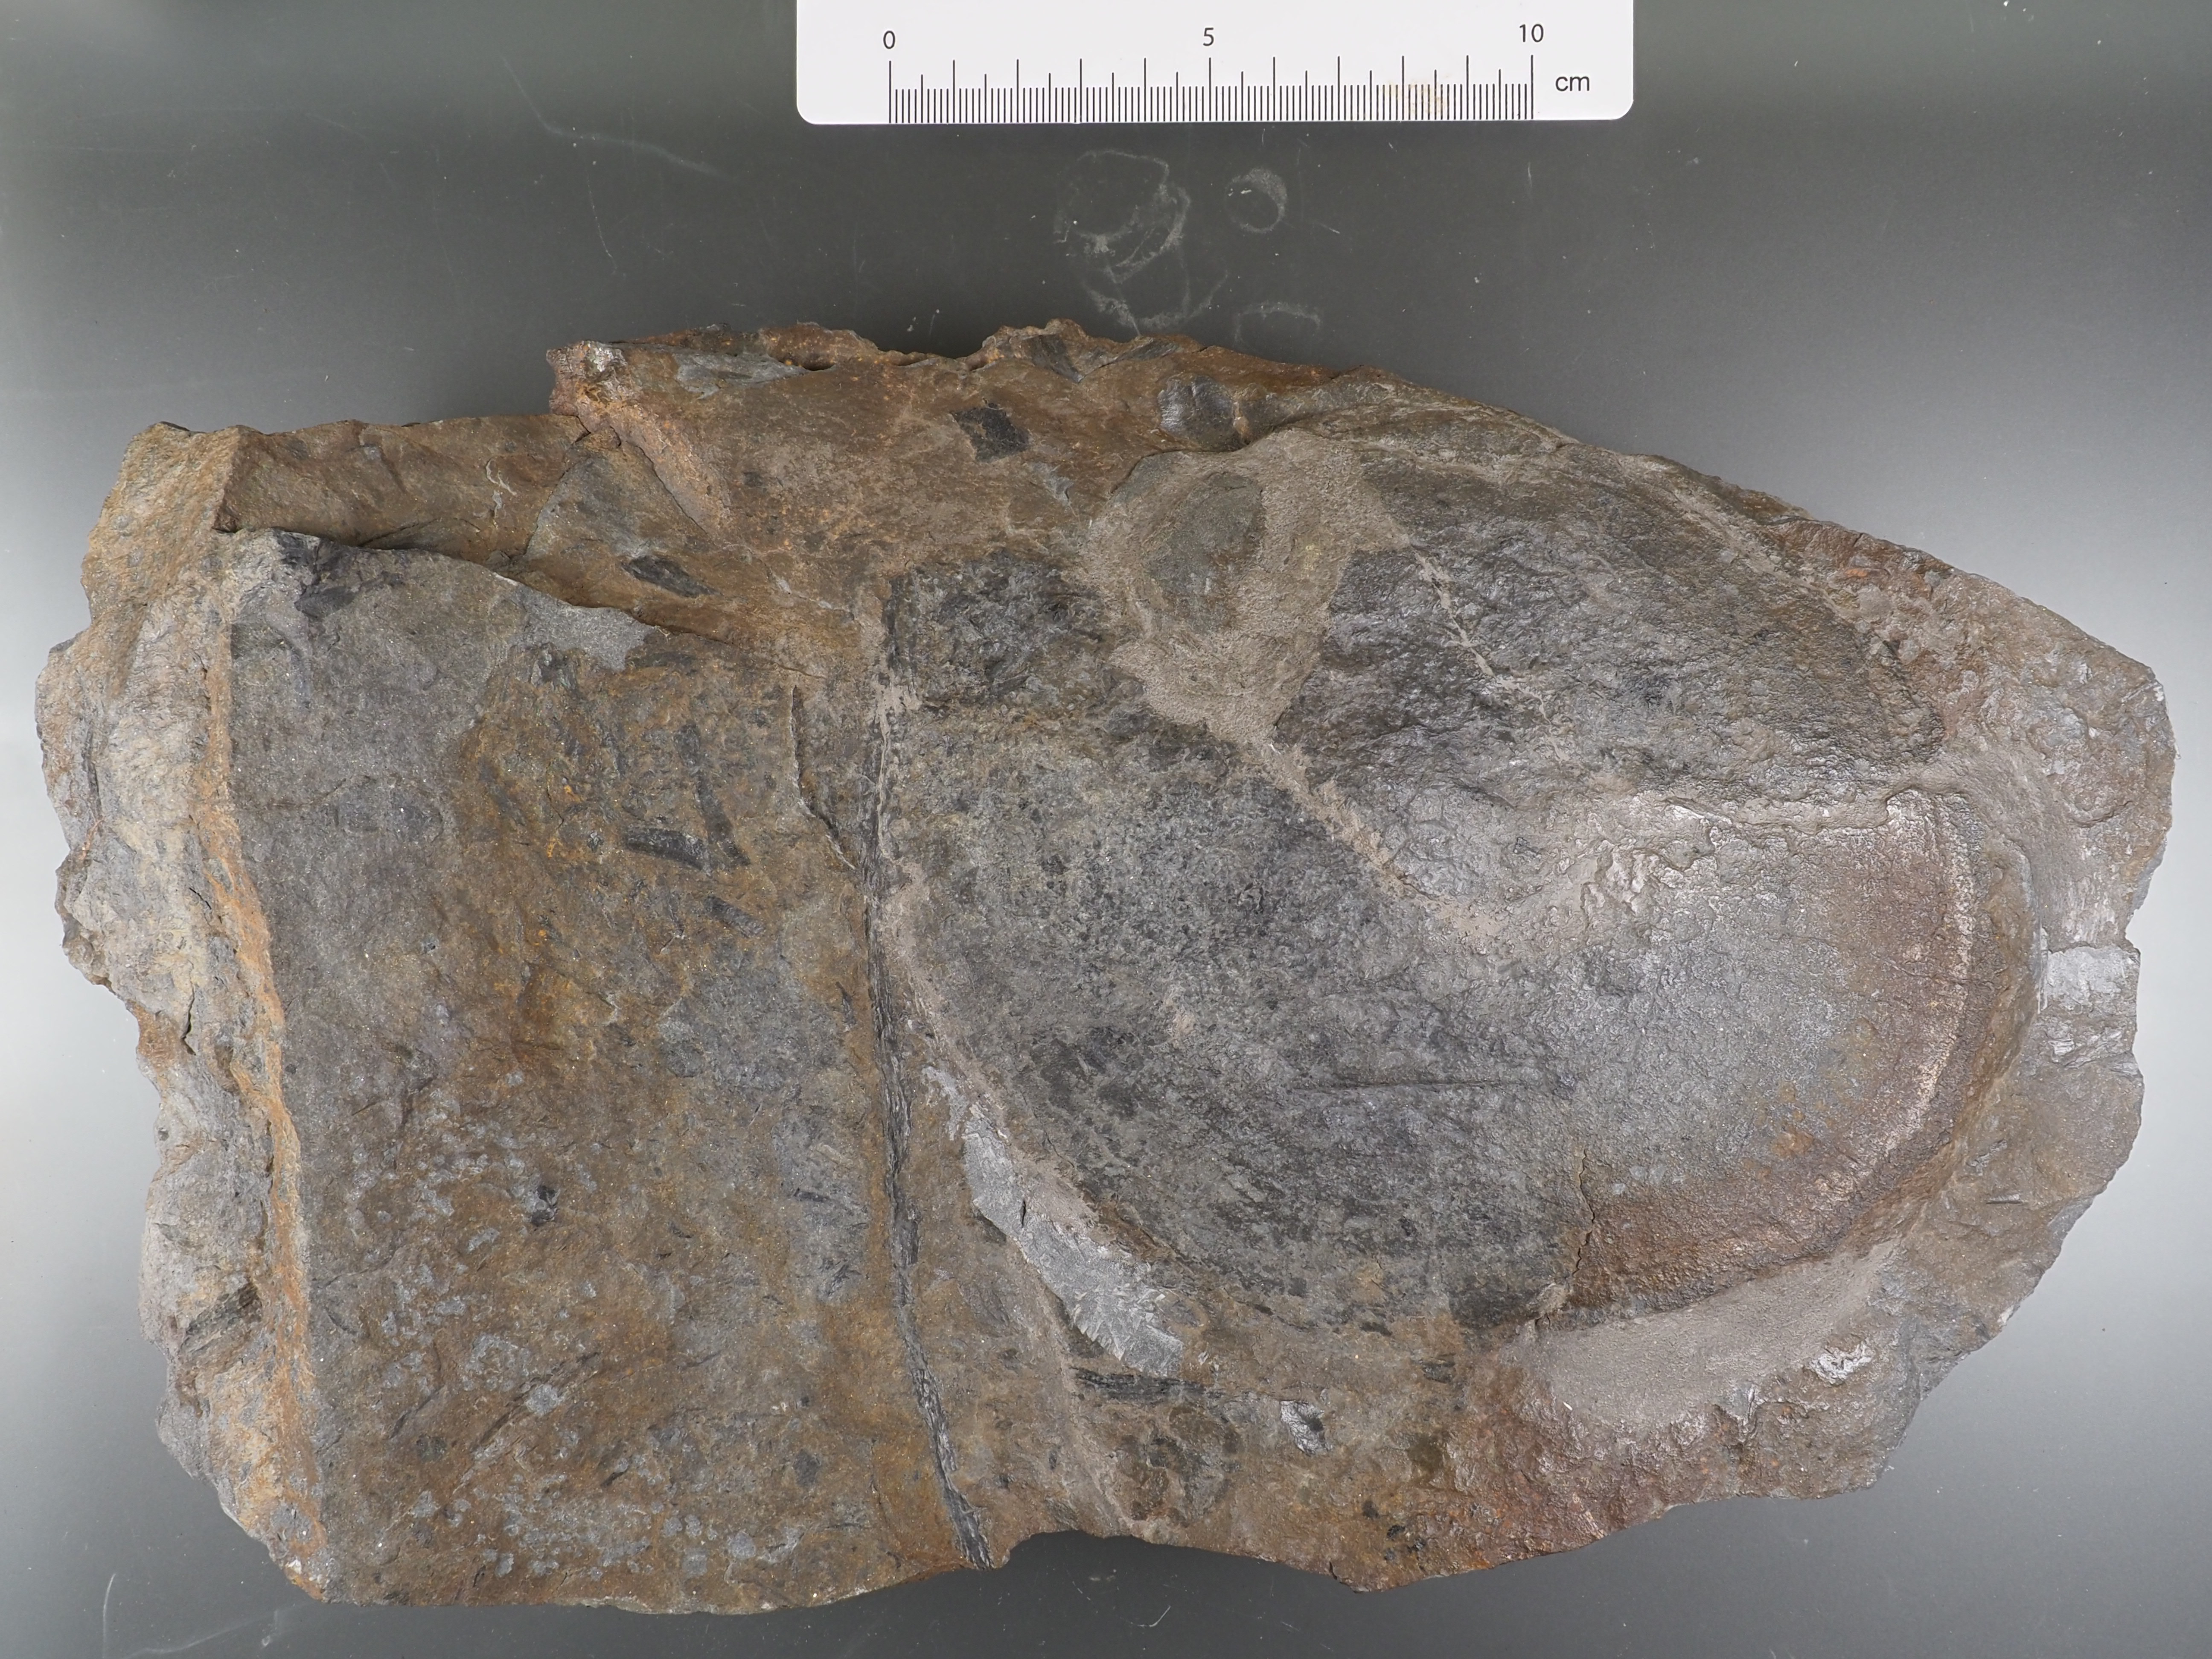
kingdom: Animalia
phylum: Chordata
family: Psammosteidae
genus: Drepanaspis
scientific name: Drepanaspis
